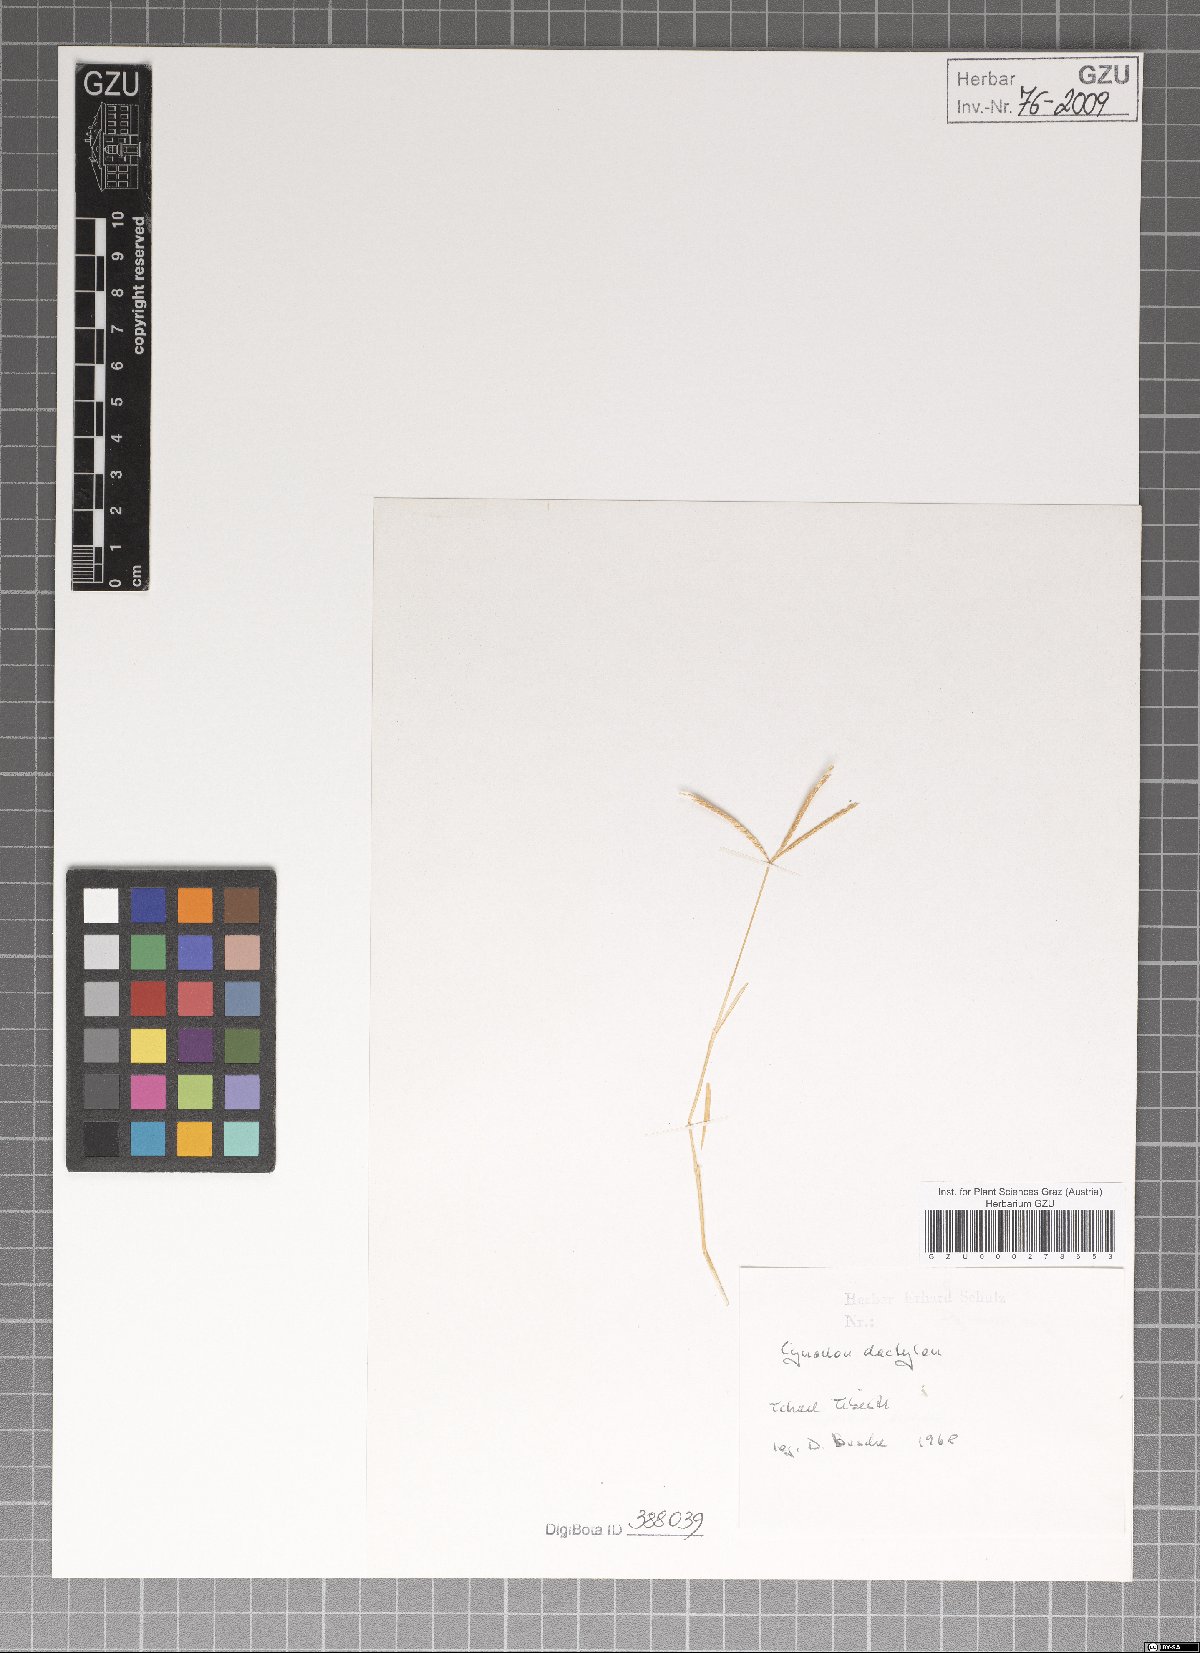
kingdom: Plantae
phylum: Tracheophyta
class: Liliopsida
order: Poales
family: Poaceae
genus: Cynodon
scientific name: Cynodon dactylon
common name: Bermuda grass
